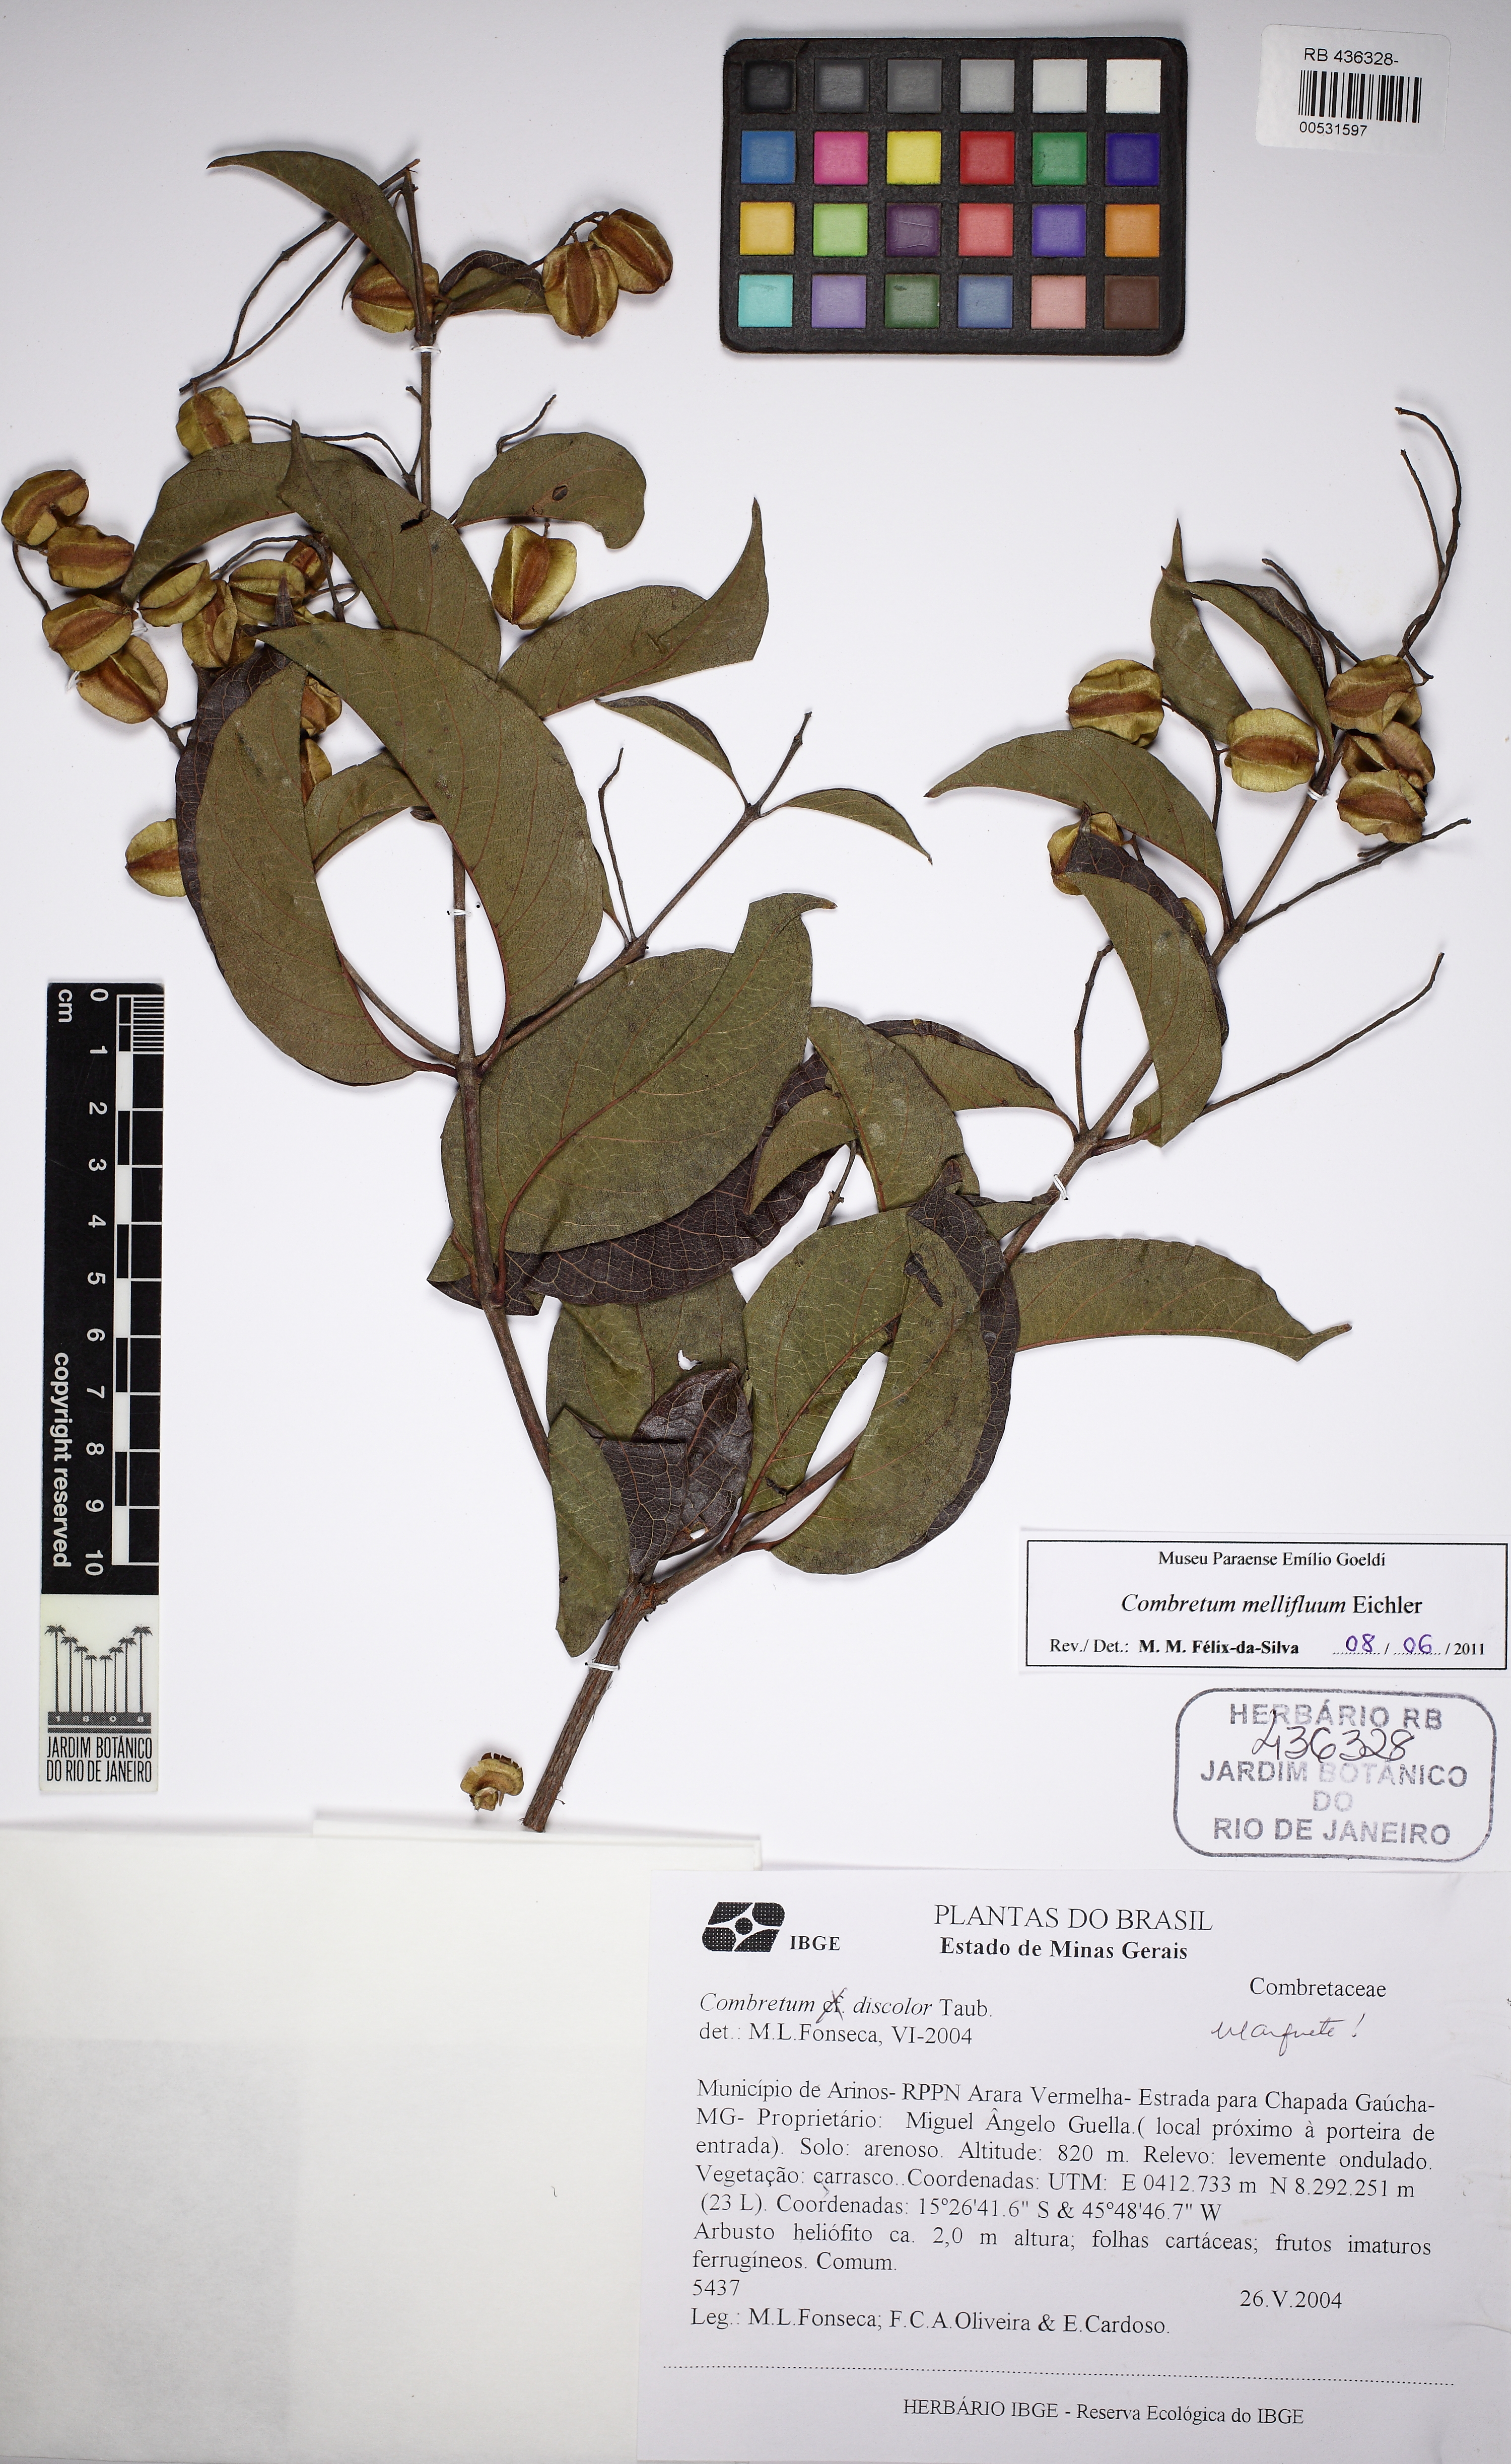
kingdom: Plantae
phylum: Tracheophyta
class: Magnoliopsida
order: Myrtales
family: Combretaceae
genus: Combretum
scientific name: Combretum mellifluum
